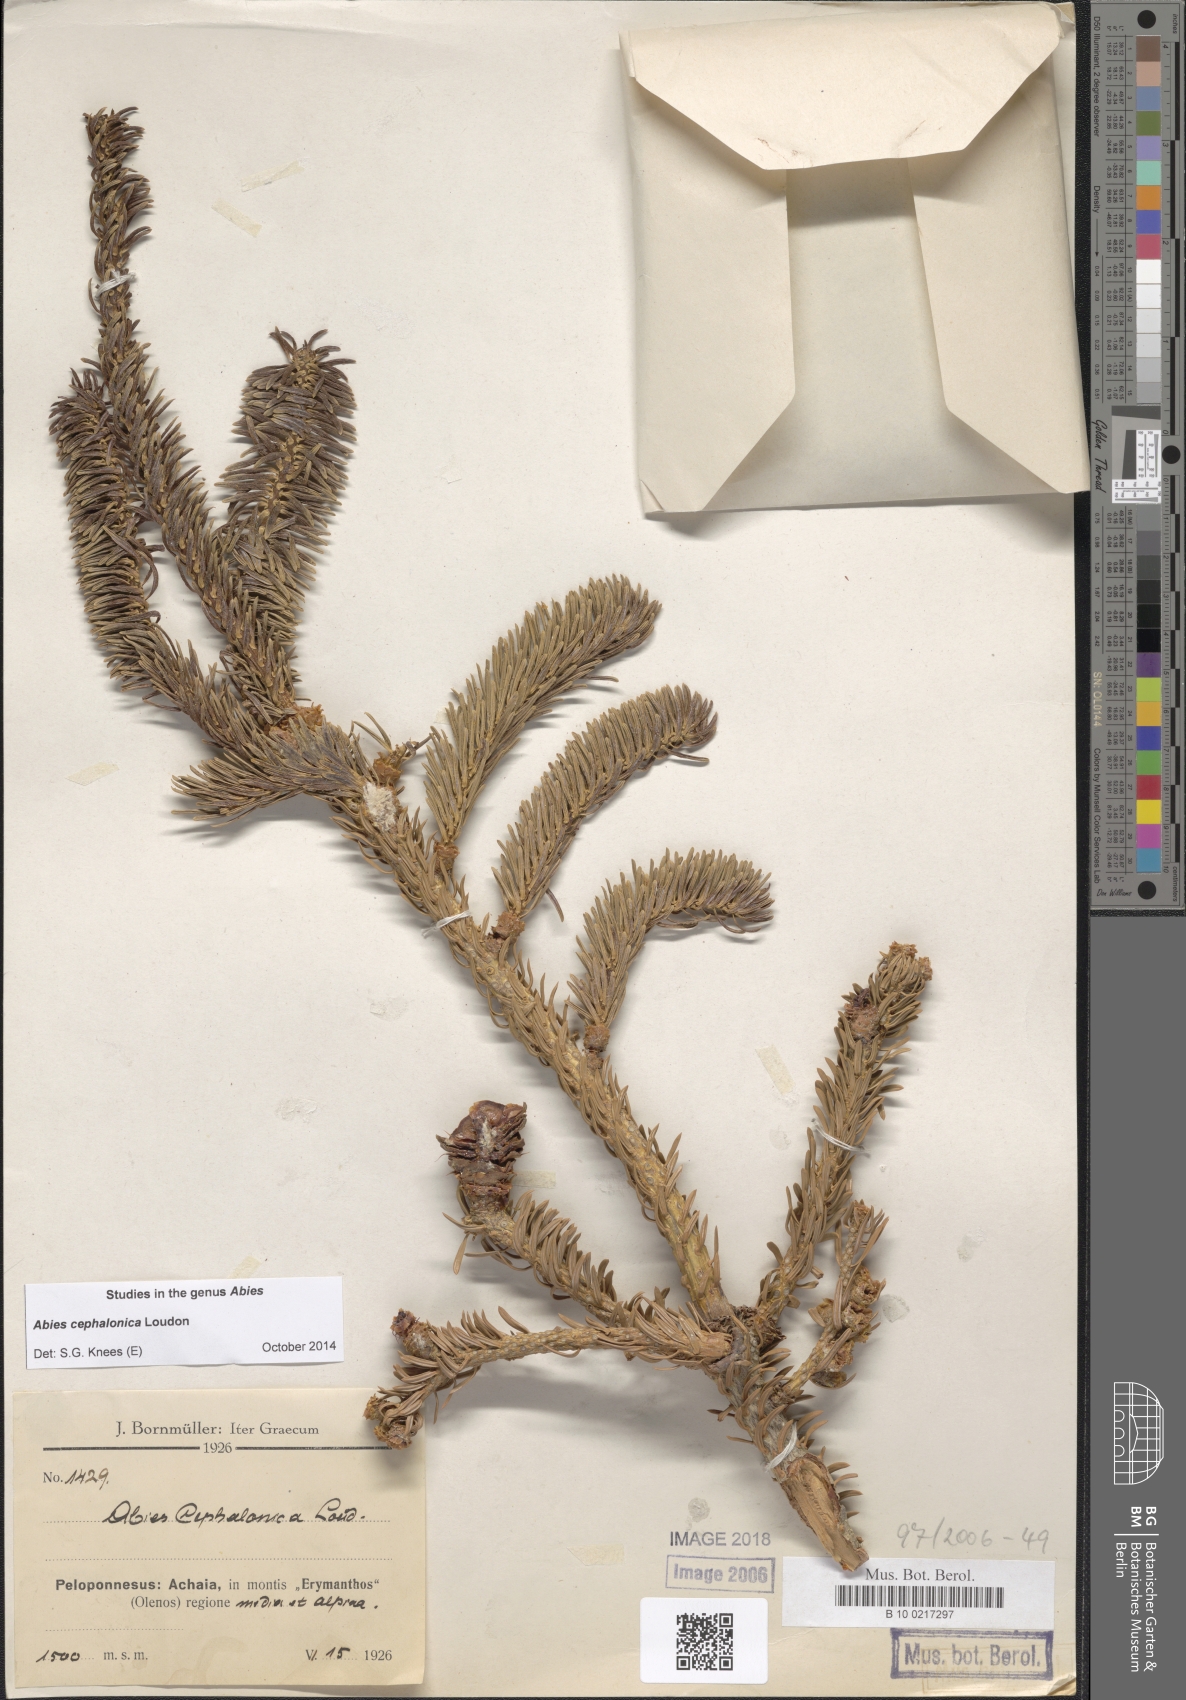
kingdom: Plantae
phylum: Tracheophyta
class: Pinopsida
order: Pinales
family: Pinaceae
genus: Abies
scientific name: Abies cephalonica
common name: Greek fir
